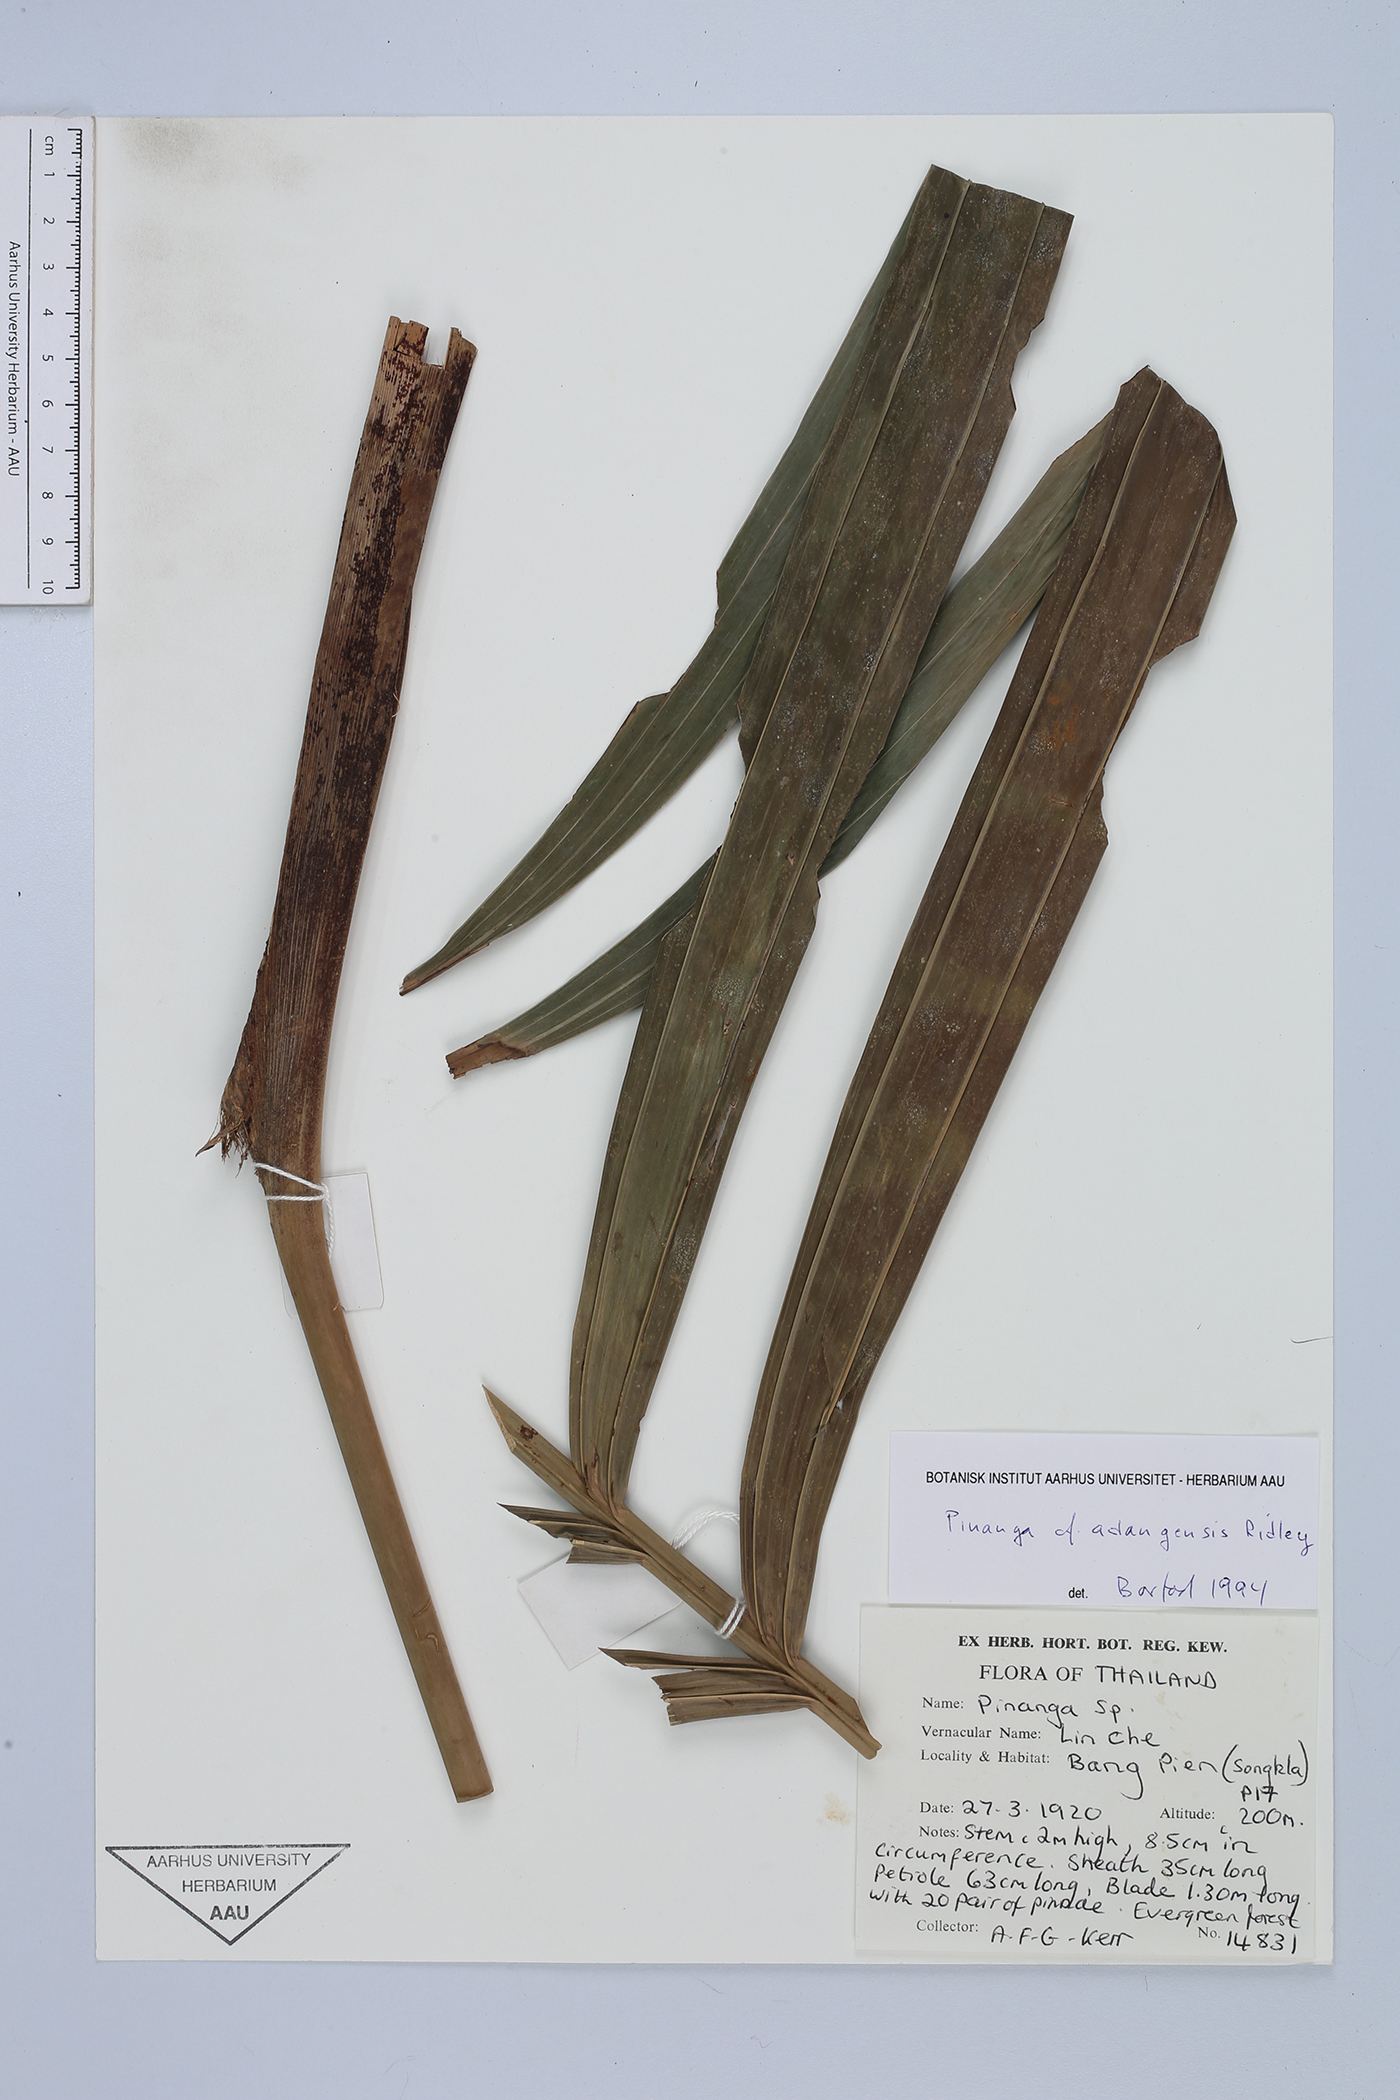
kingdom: Plantae
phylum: Tracheophyta
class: Liliopsida
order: Arecales
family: Arecaceae
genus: Pinanga
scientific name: Pinanga adangensis
